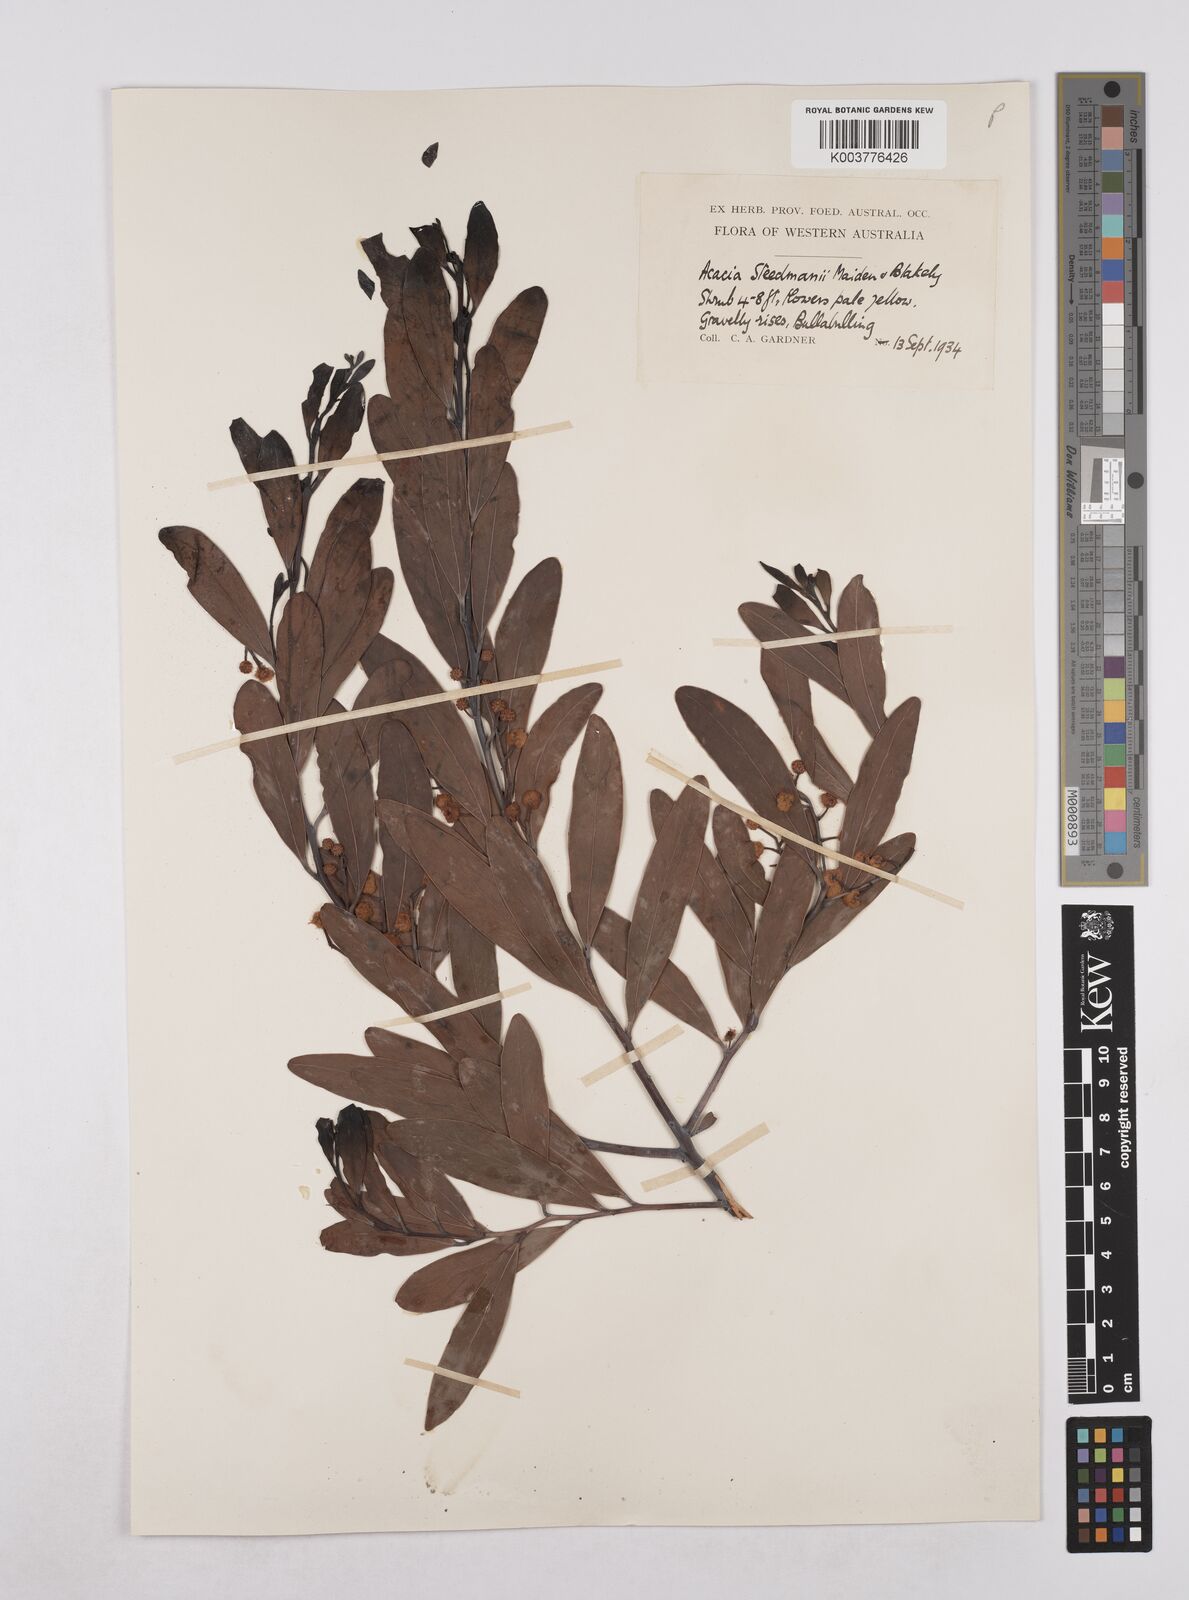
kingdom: Plantae
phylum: Tracheophyta
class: Magnoliopsida
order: Fabales
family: Fabaceae
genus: Acacia
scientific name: Acacia steedmanii
